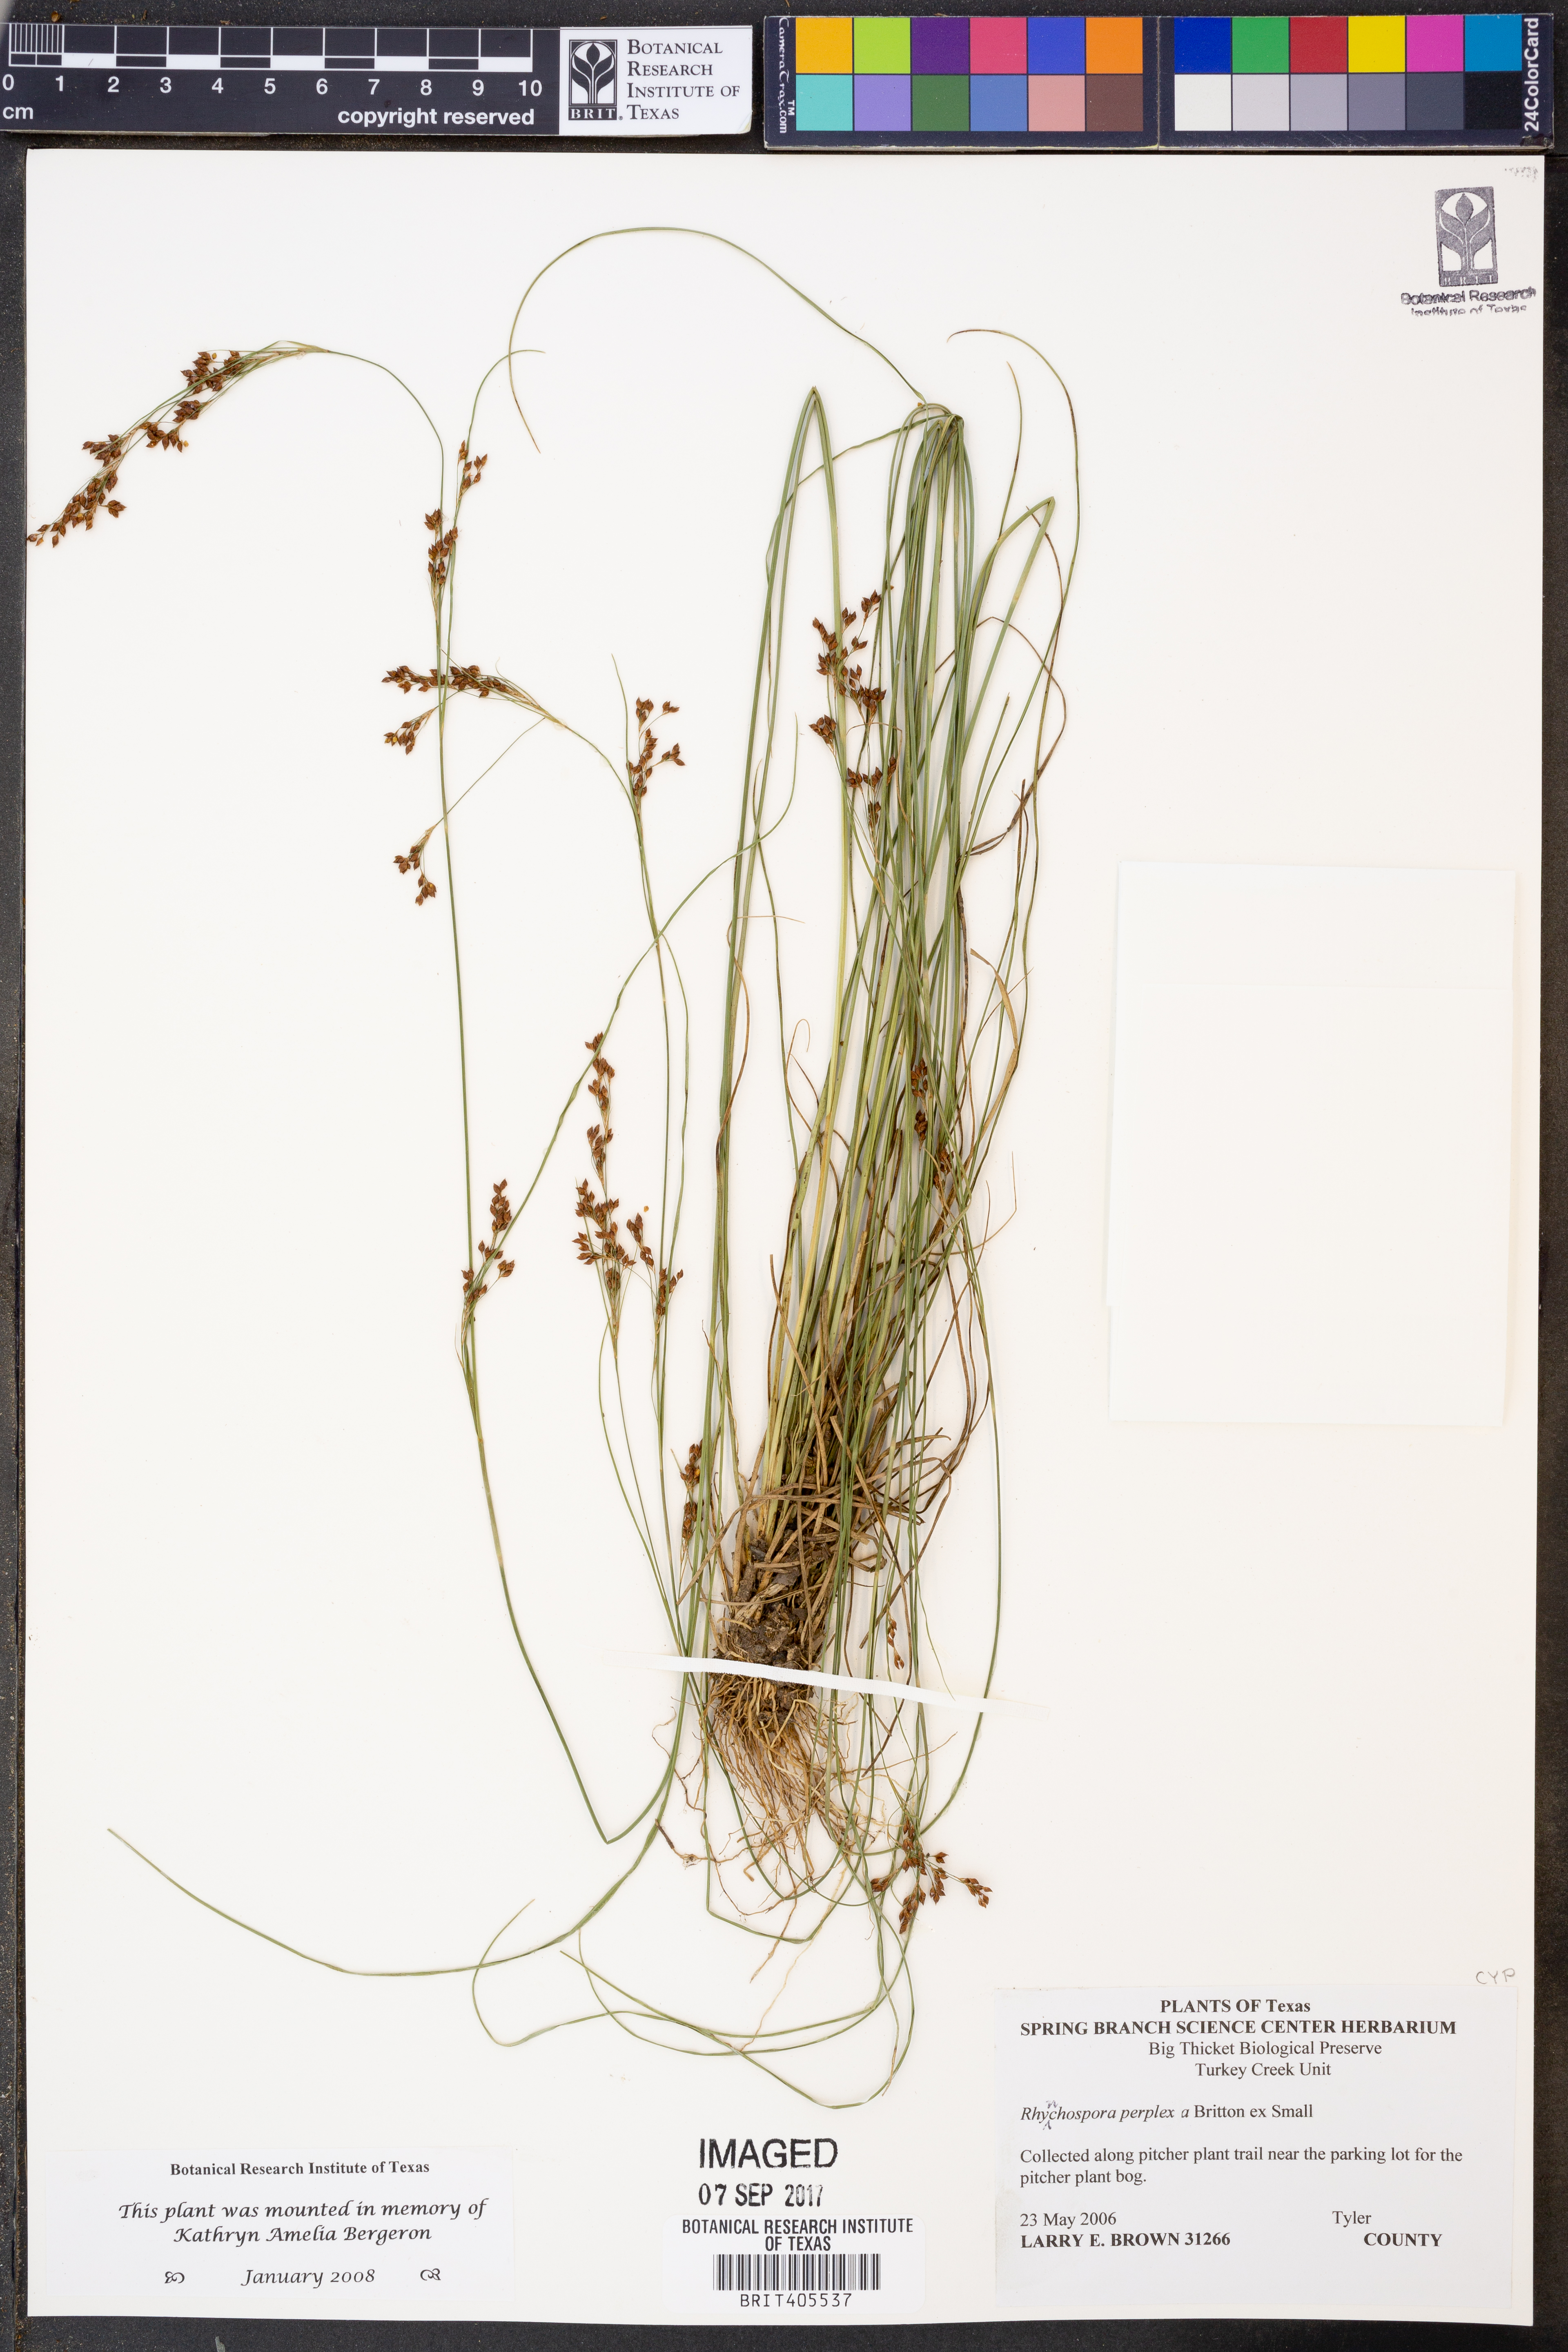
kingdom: Plantae
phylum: Tracheophyta
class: Liliopsida
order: Poales
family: Cyperaceae
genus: Rhynchospora
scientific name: Rhynchospora perplexa
